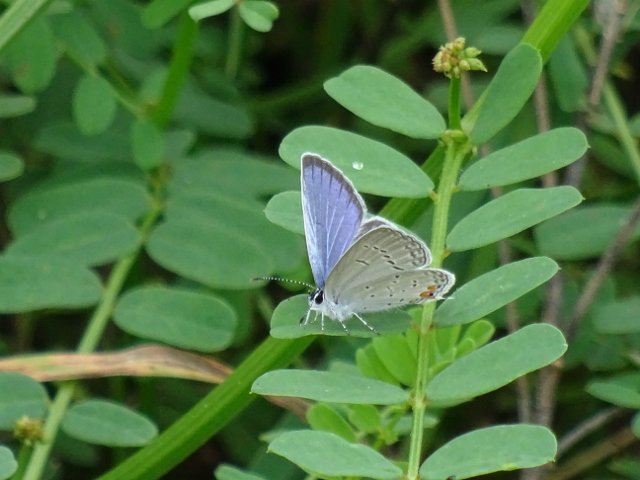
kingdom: Animalia
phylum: Arthropoda
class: Insecta
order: Lepidoptera
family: Lycaenidae
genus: Elkalyce
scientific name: Elkalyce comyntas
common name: Eastern Tailed-Blue
